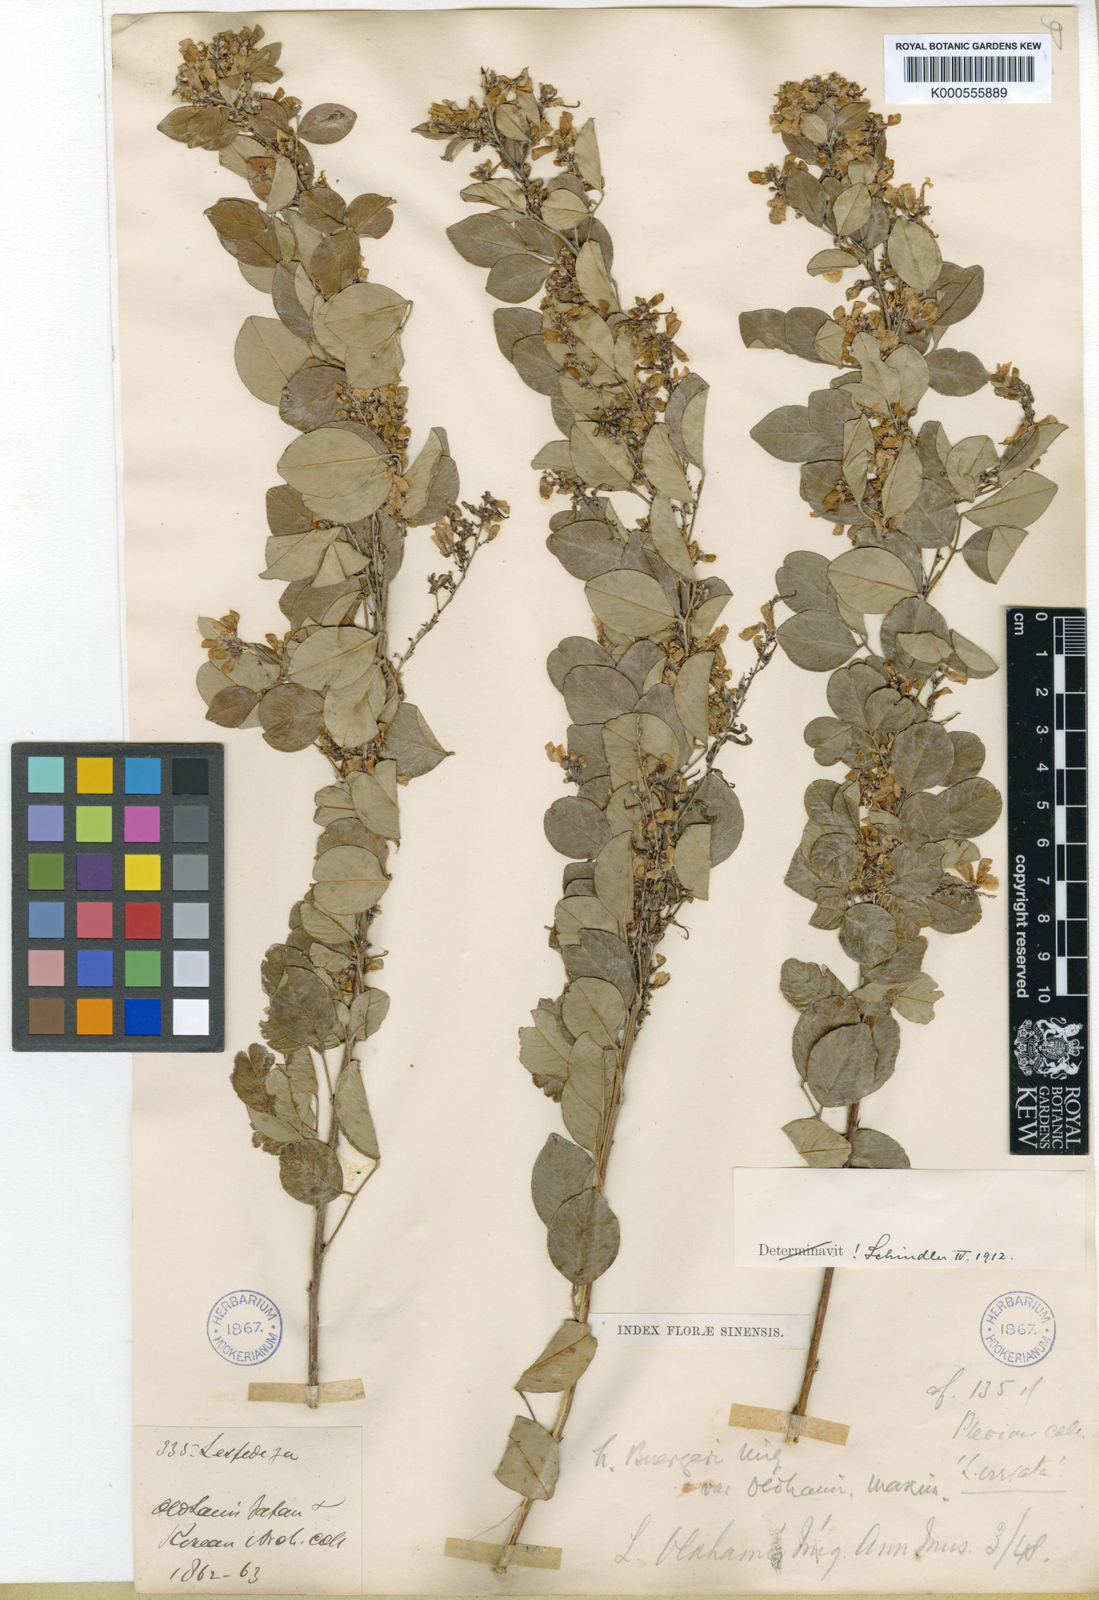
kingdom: Plantae
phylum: Tracheophyta
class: Magnoliopsida
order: Fabales
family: Fabaceae
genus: Vicia
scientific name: Vicia
